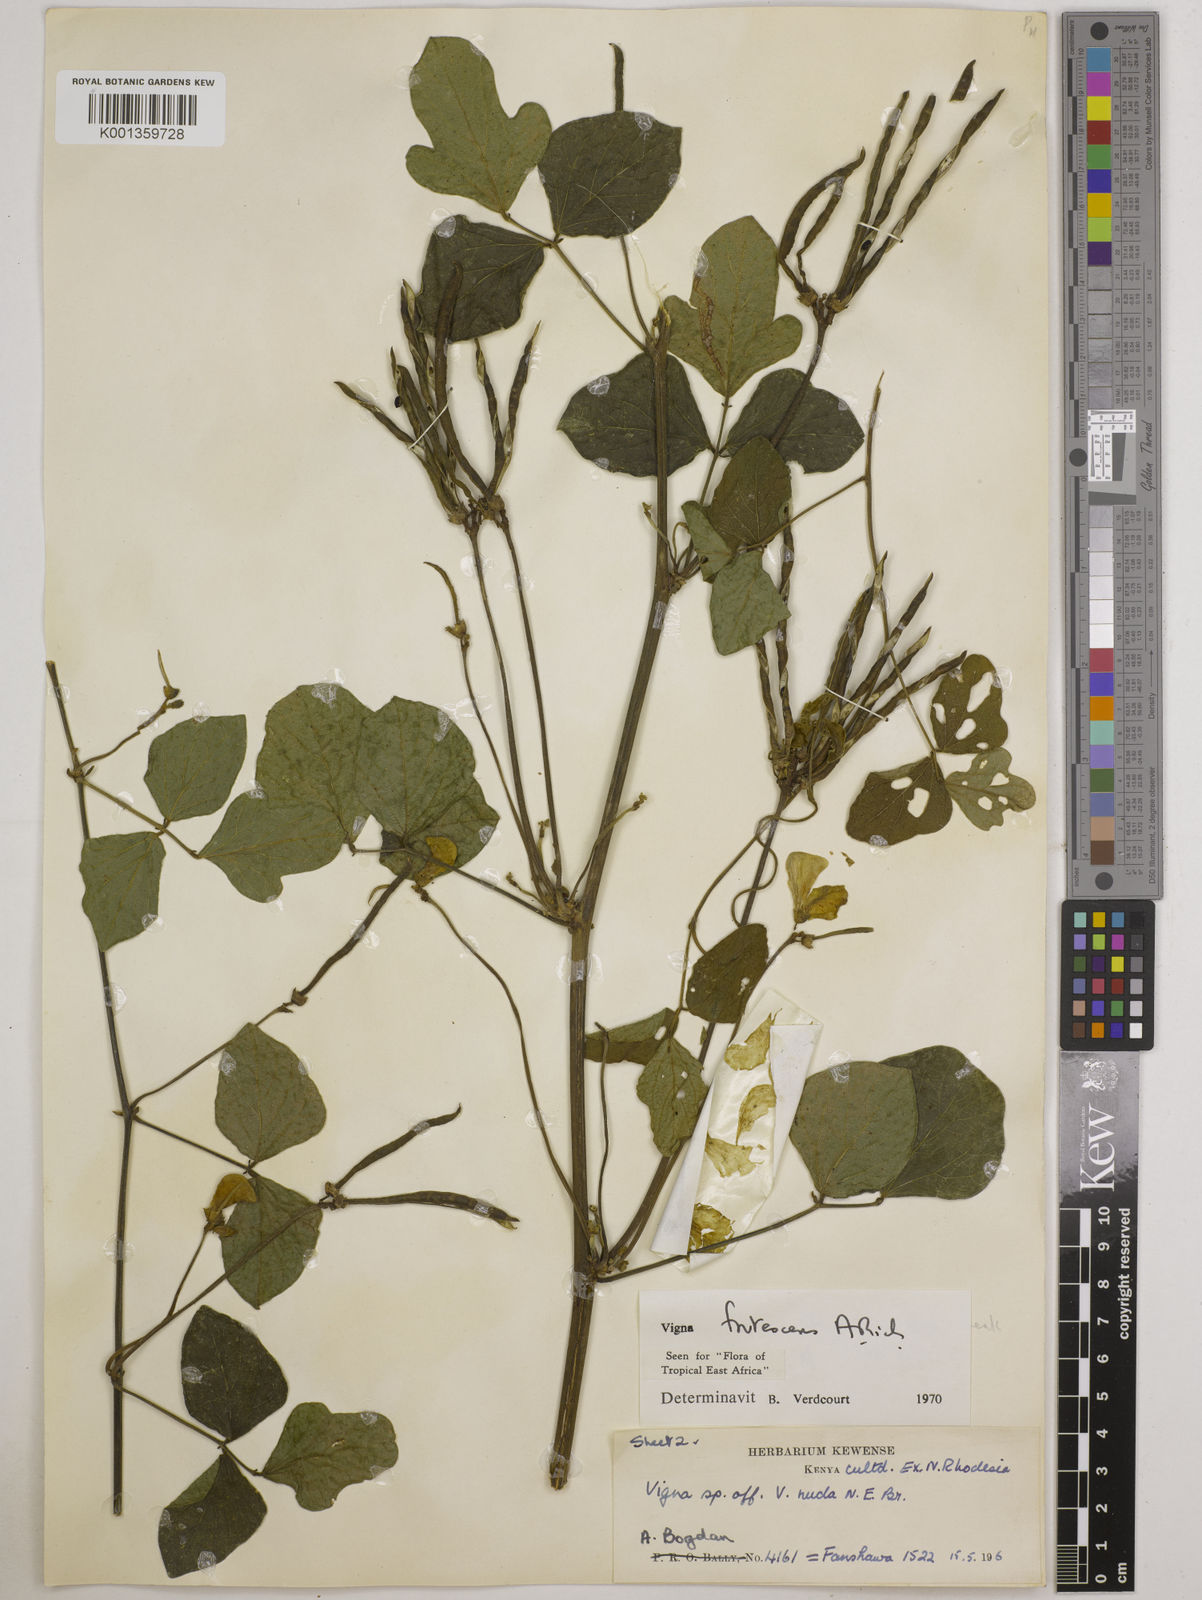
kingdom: Plantae
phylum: Tracheophyta
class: Magnoliopsida
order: Fabales
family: Fabaceae
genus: Vigna
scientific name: Vigna frutescens
